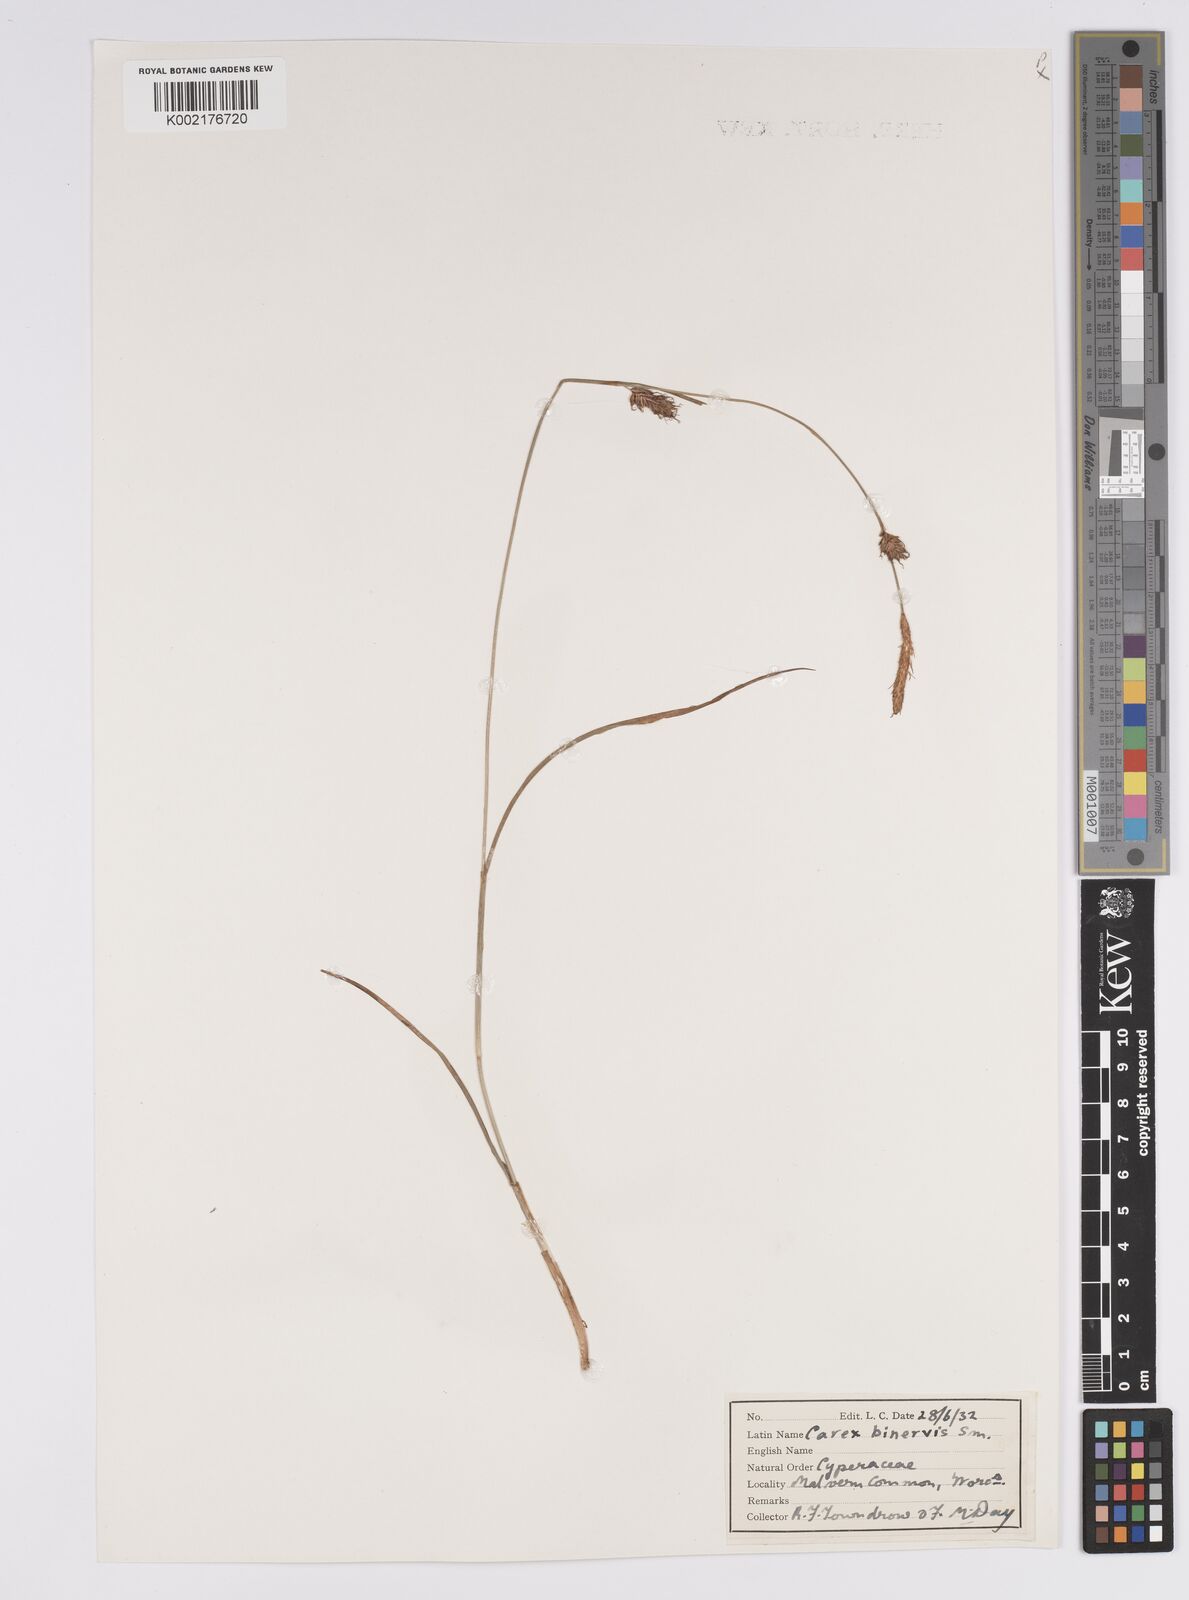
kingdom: Plantae
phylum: Tracheophyta
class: Liliopsida
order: Poales
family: Cyperaceae
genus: Carex
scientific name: Carex binervis
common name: Green-ribbed sedge
